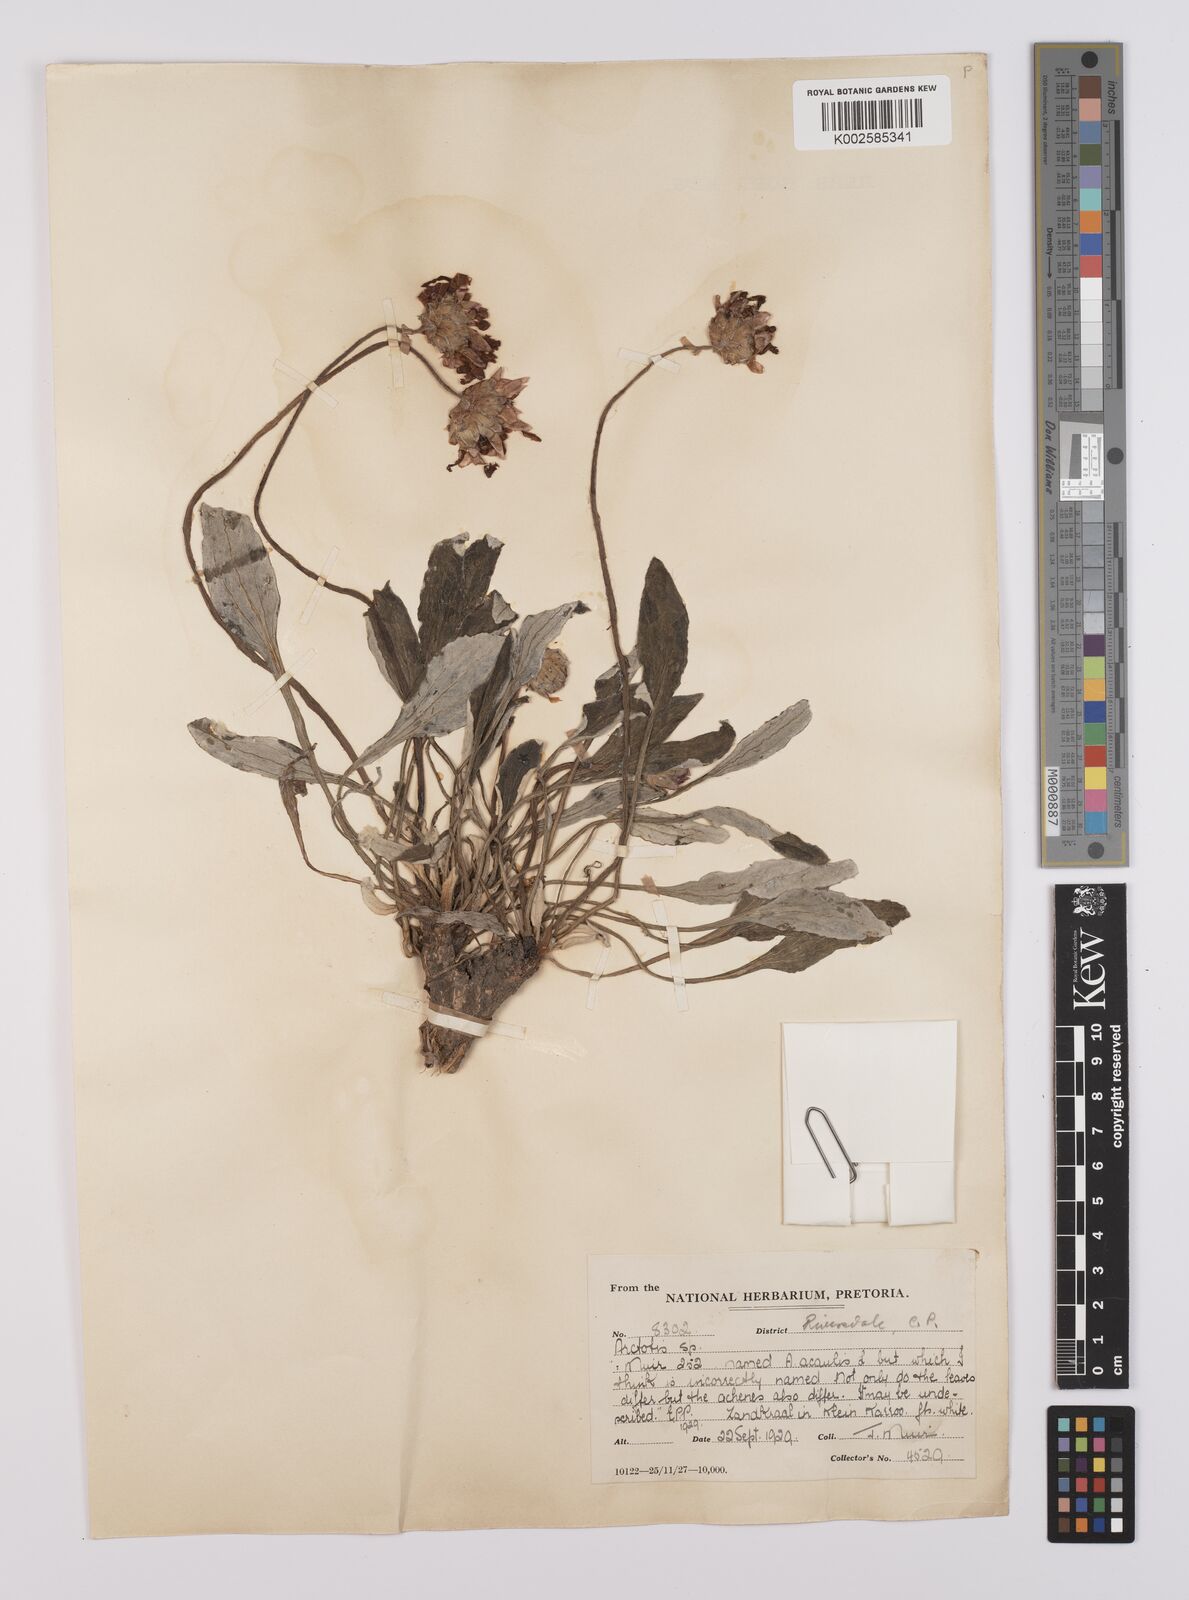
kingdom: Plantae
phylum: Tracheophyta
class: Magnoliopsida
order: Asterales
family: Asteraceae
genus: Arctotis
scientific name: Arctotis rosea
